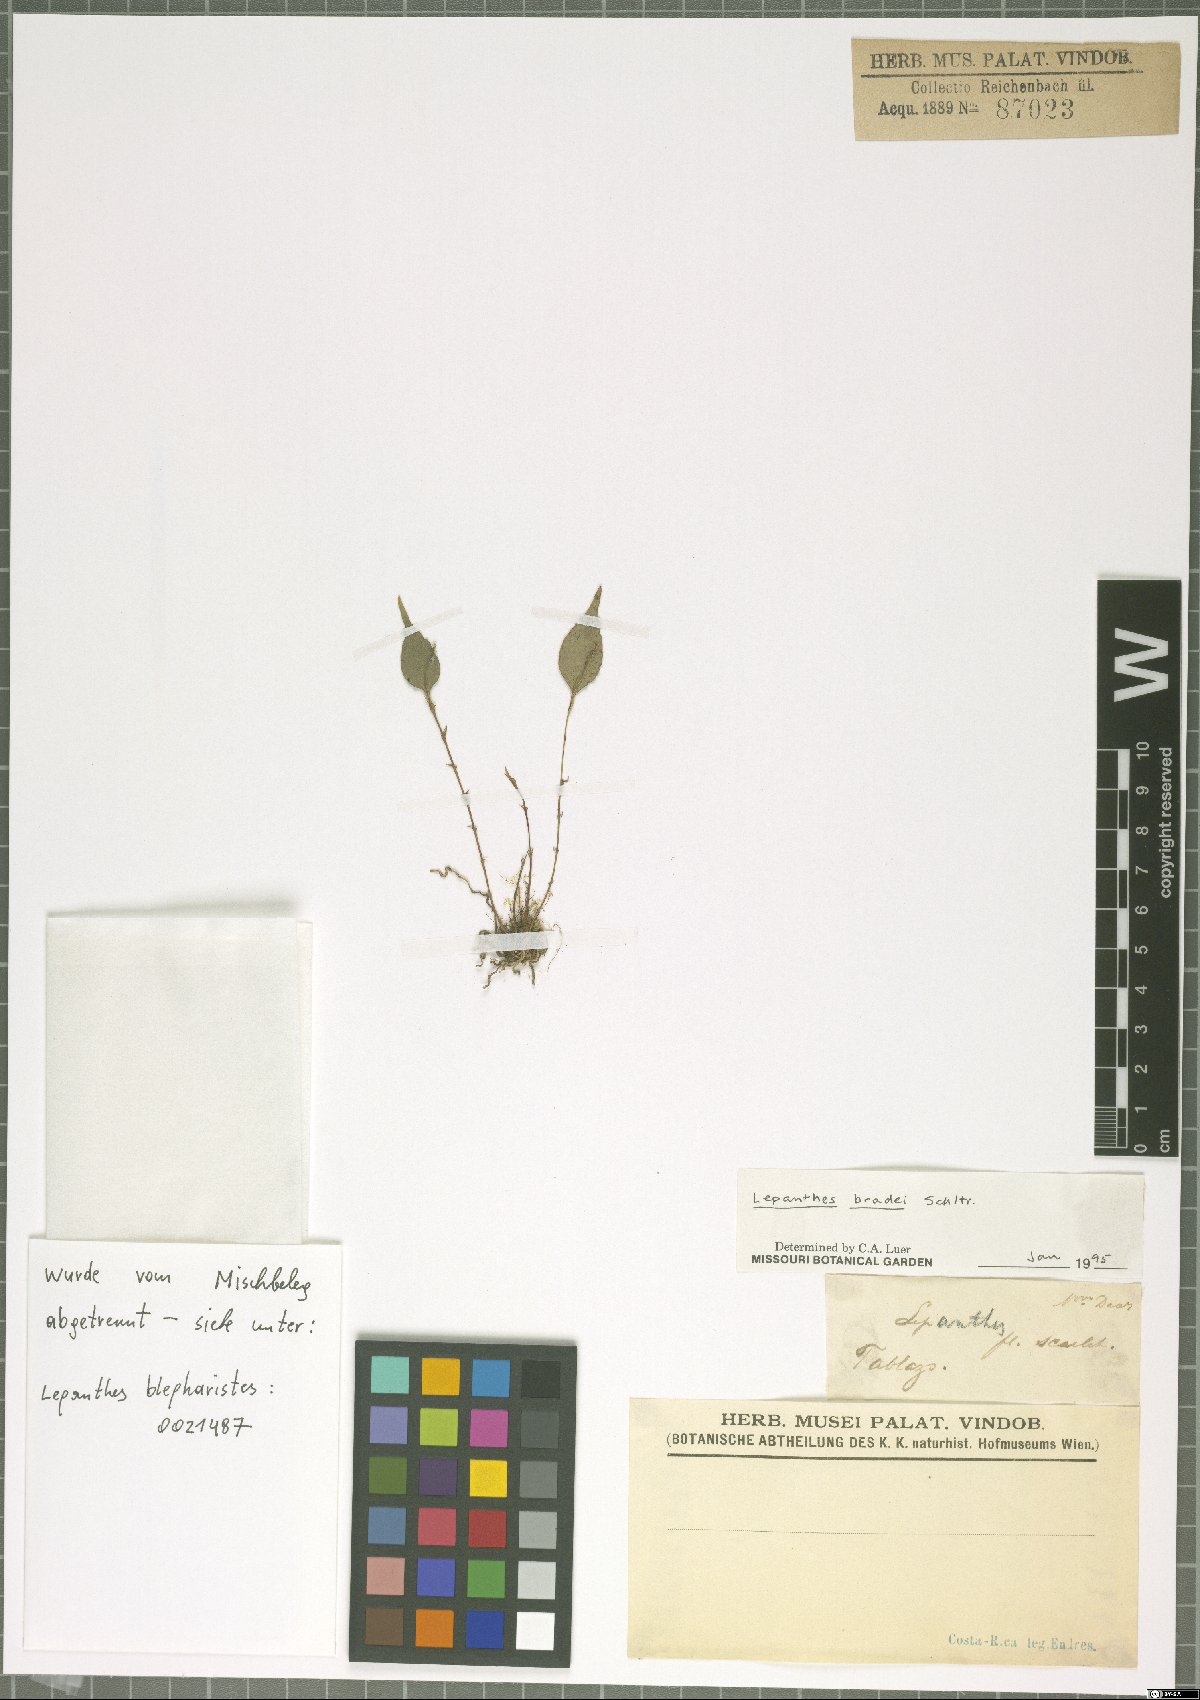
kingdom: Plantae
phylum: Tracheophyta
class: Liliopsida
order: Asparagales
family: Orchidaceae
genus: Lepanthes
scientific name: Lepanthes bradei
